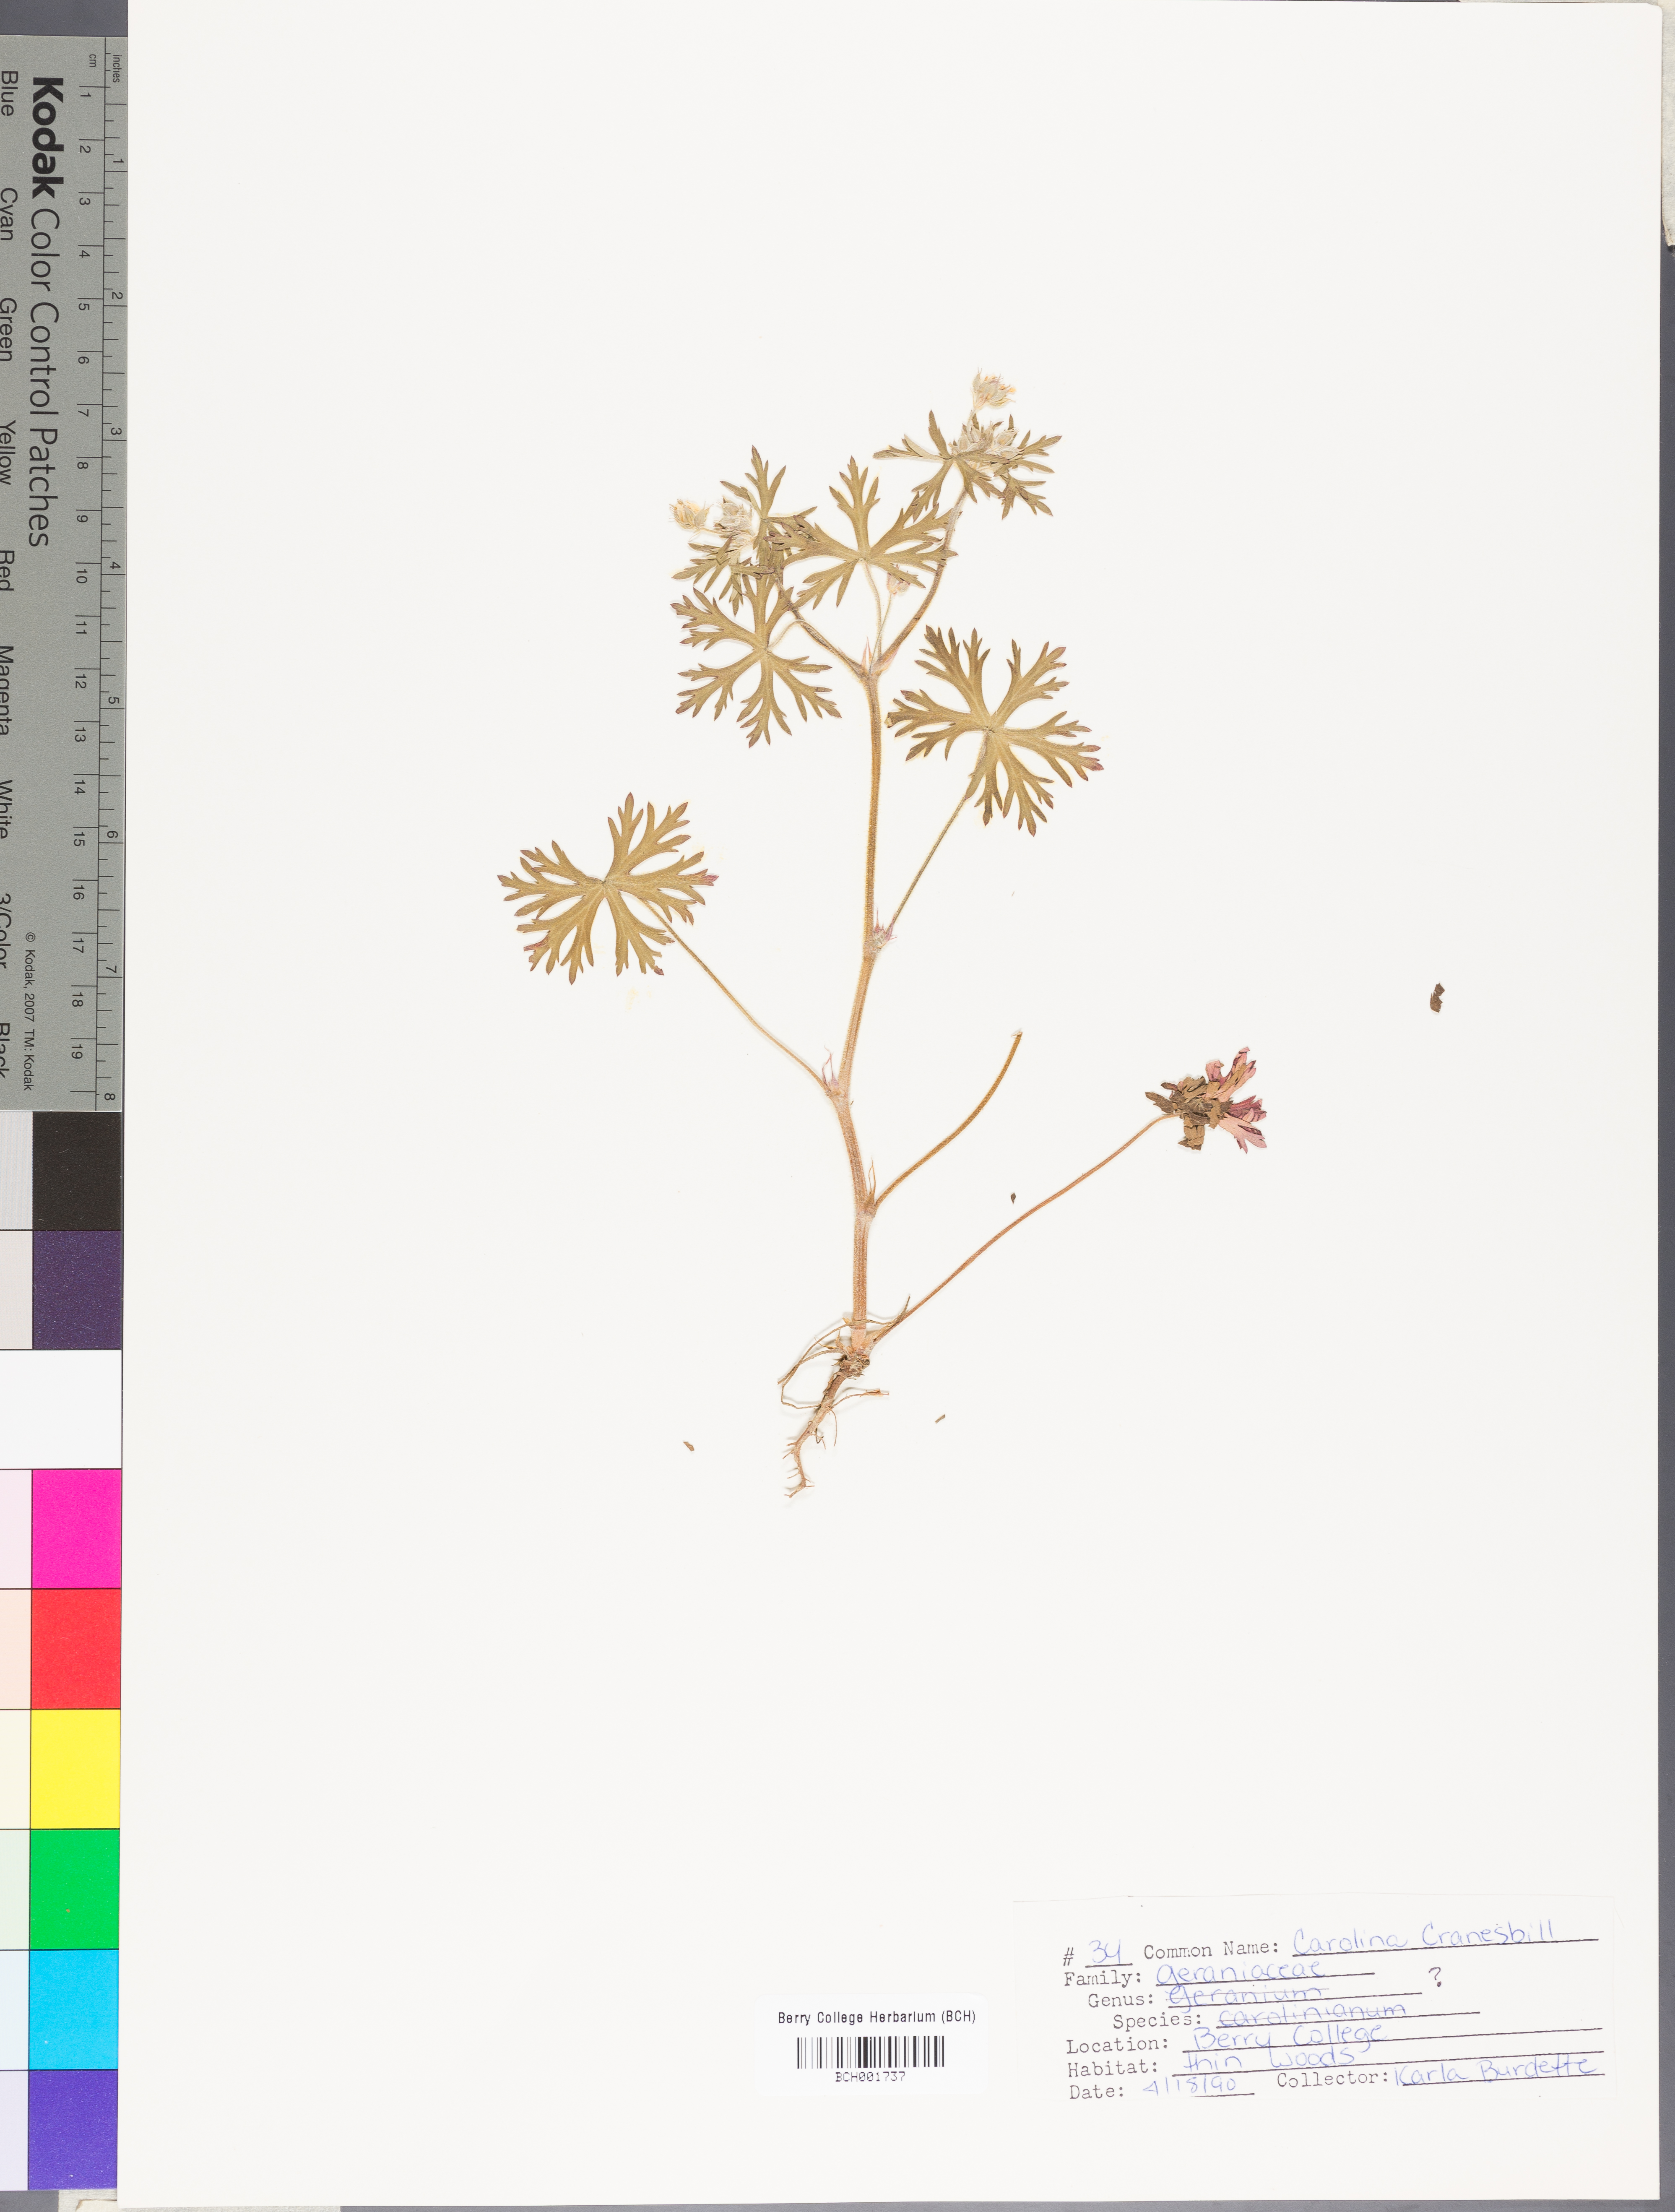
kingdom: Plantae
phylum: Tracheophyta
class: Magnoliopsida
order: Geraniales
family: Geraniaceae
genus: Geranium
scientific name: Geranium carolinianum
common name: Carolina crane's-bill
